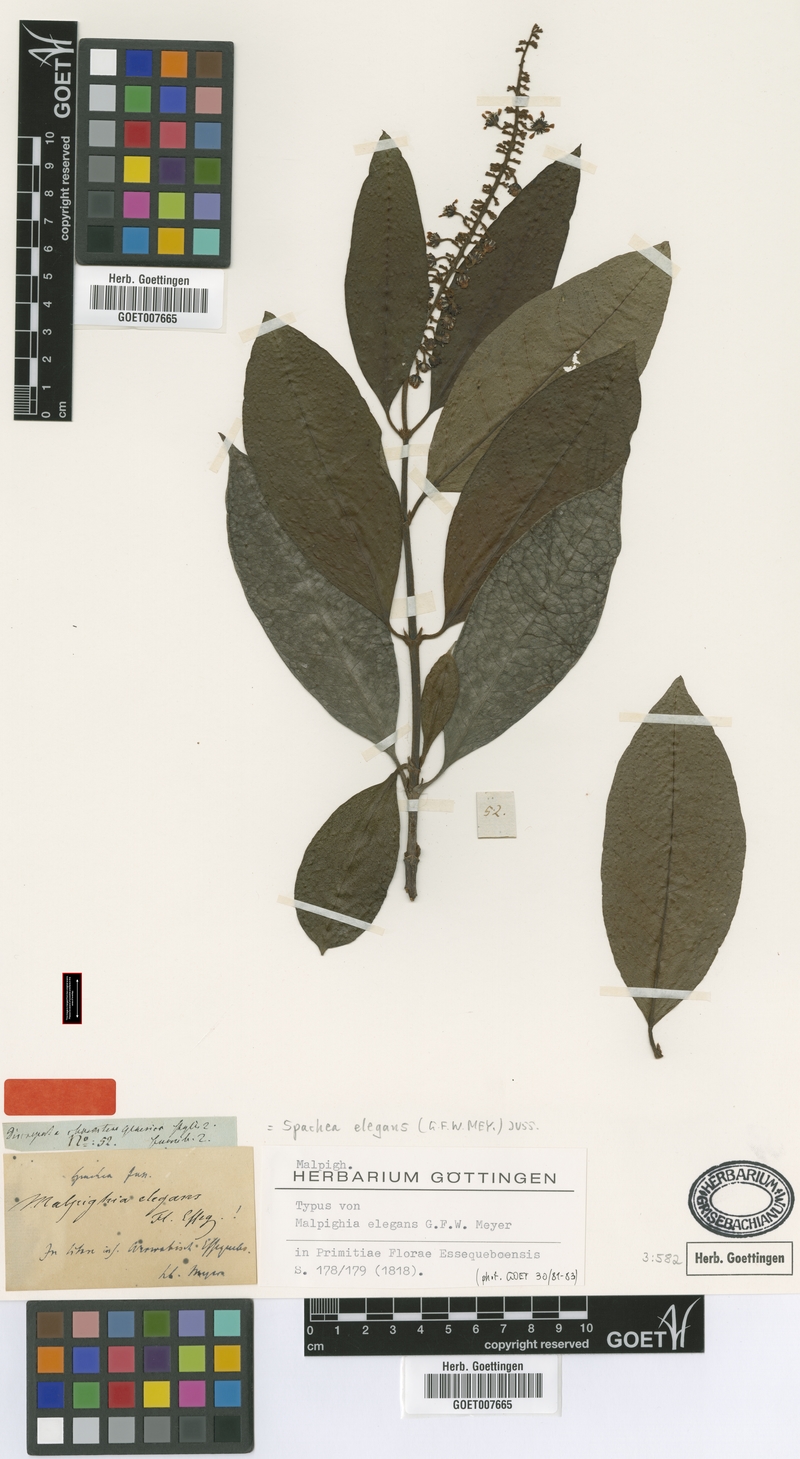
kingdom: Plantae
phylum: Tracheophyta
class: Magnoliopsida
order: Malpighiales
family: Malpighiaceae
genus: Spachea
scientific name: Spachea elegans
